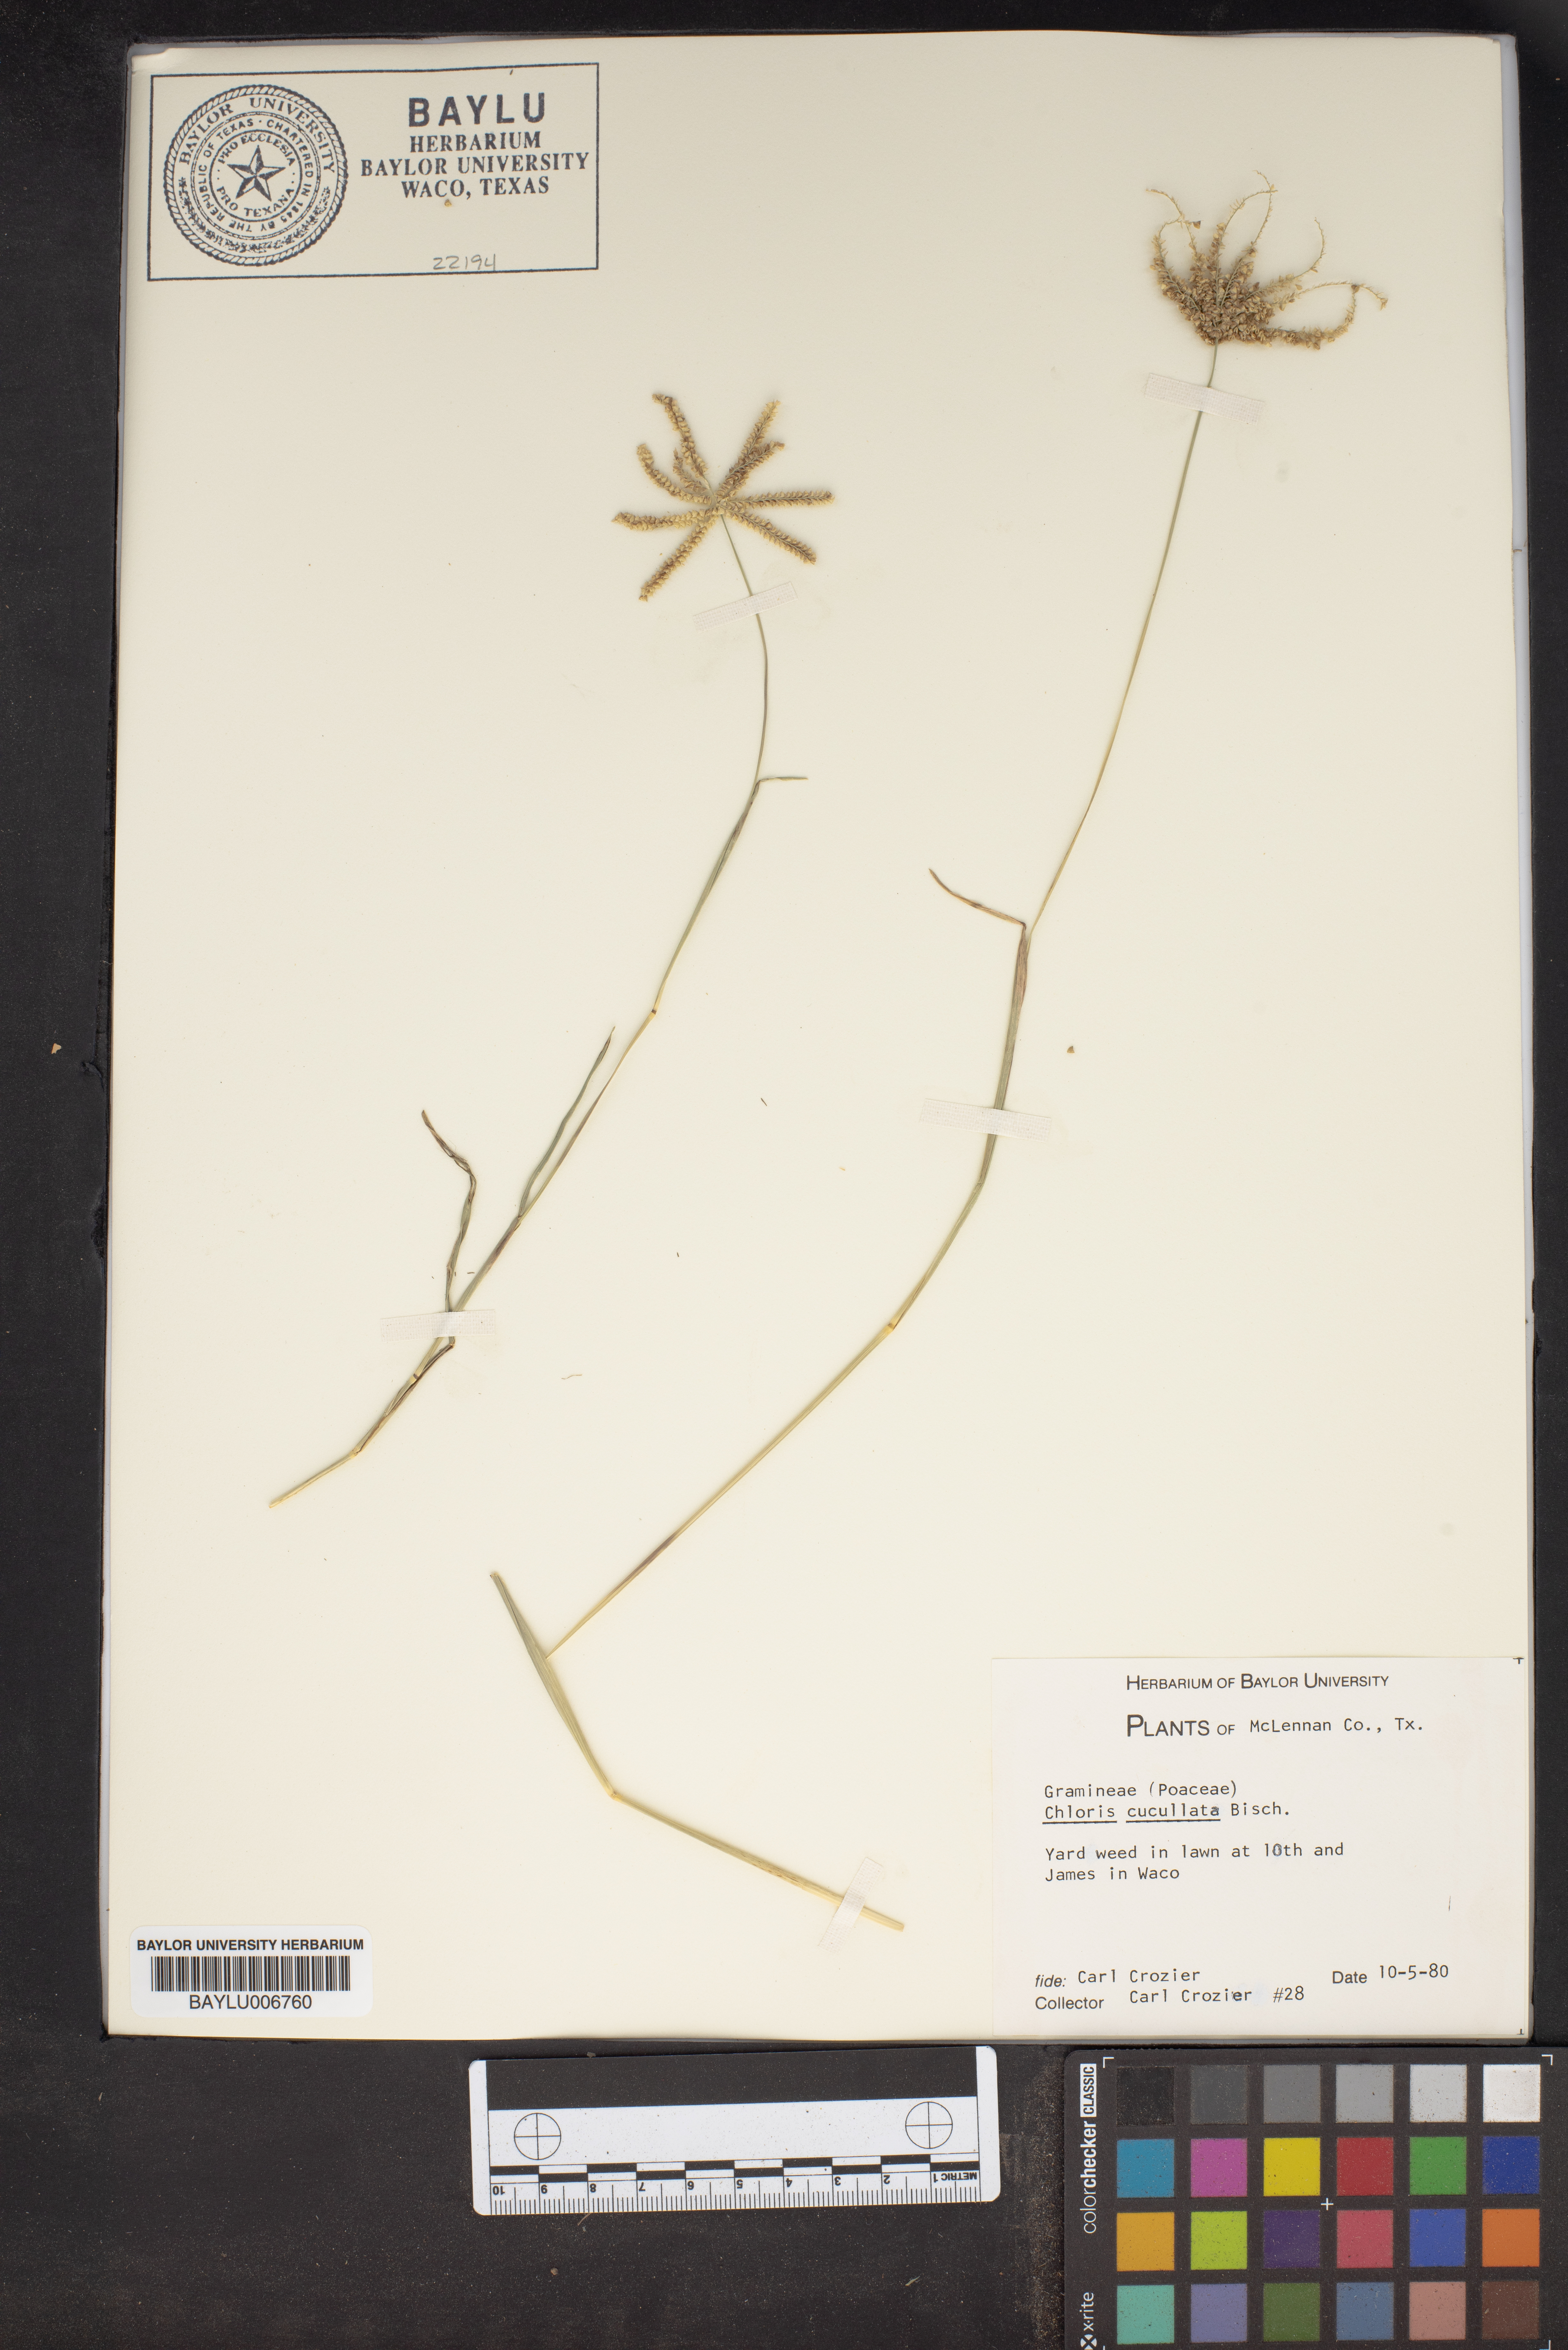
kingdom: Plantae
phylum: Tracheophyta
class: Liliopsida
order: Poales
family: Poaceae
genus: Chloris
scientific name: Chloris cucullata
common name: Hooded windmill grass
